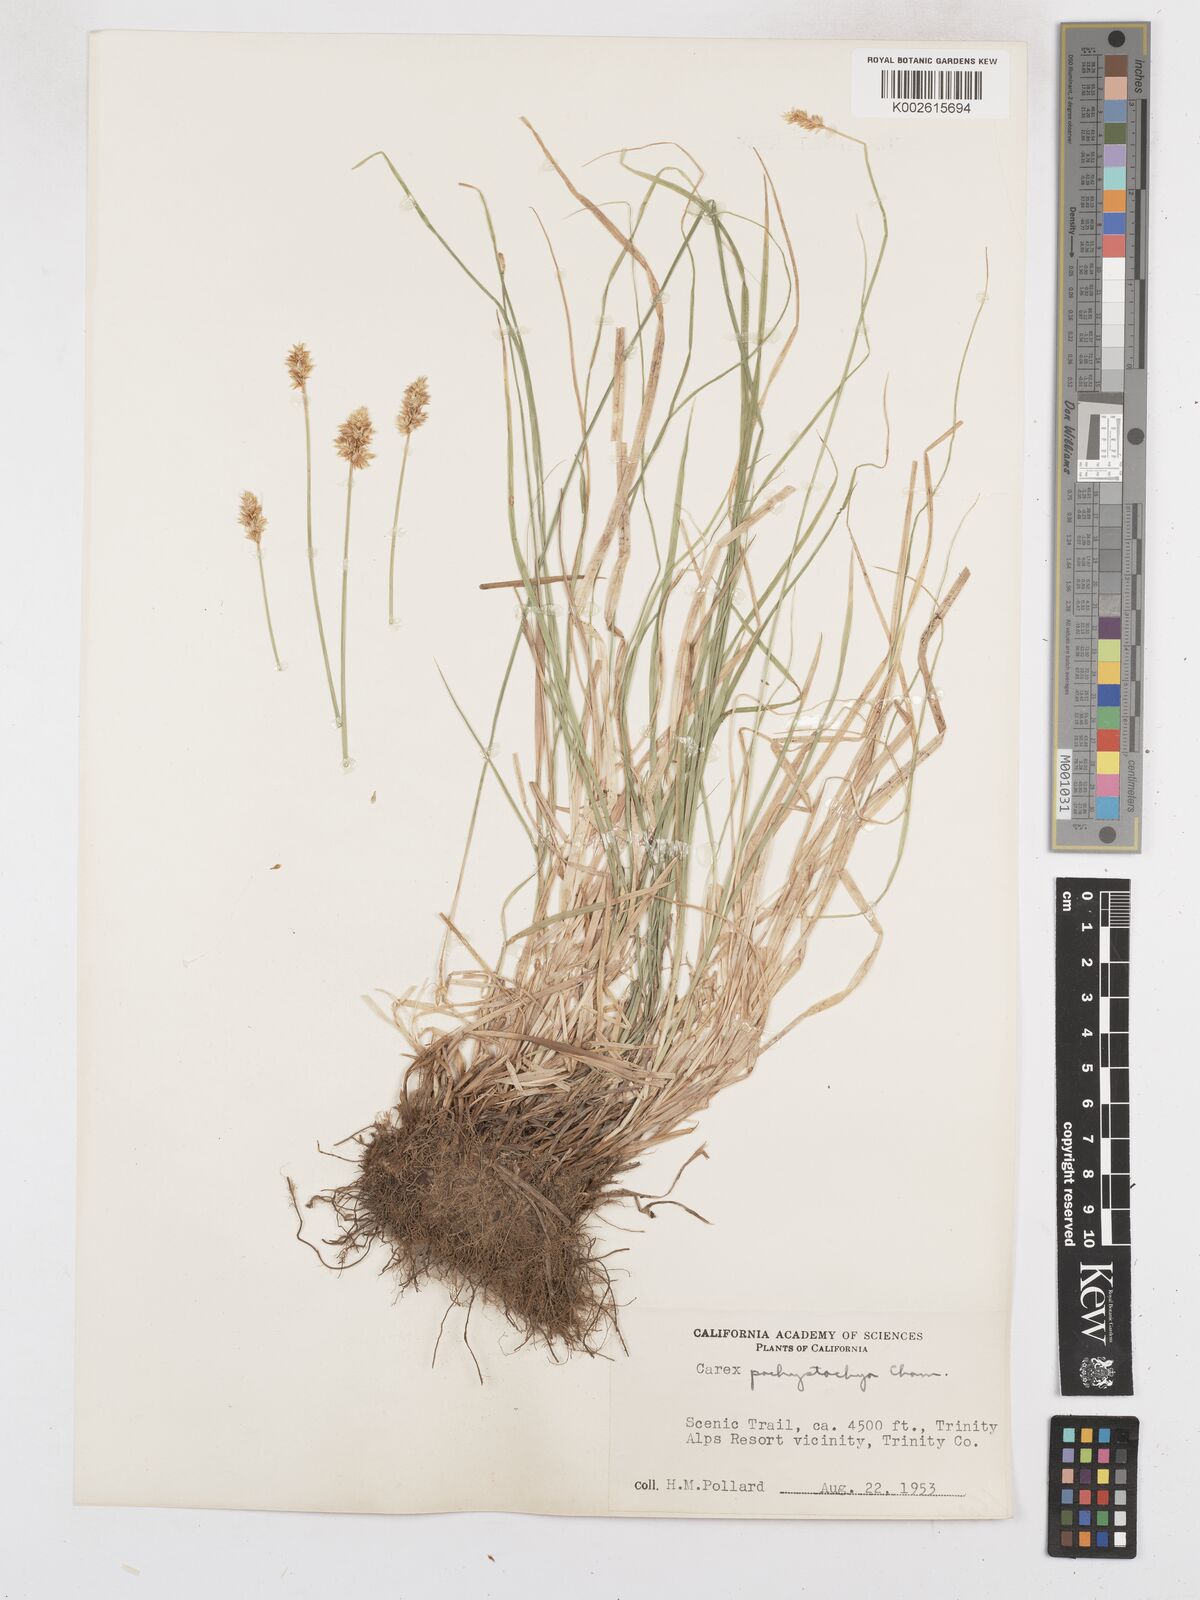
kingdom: Plantae
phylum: Tracheophyta
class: Liliopsida
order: Poales
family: Cyperaceae
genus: Carex
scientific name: Carex pachystachya
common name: Chamisso's sedge
